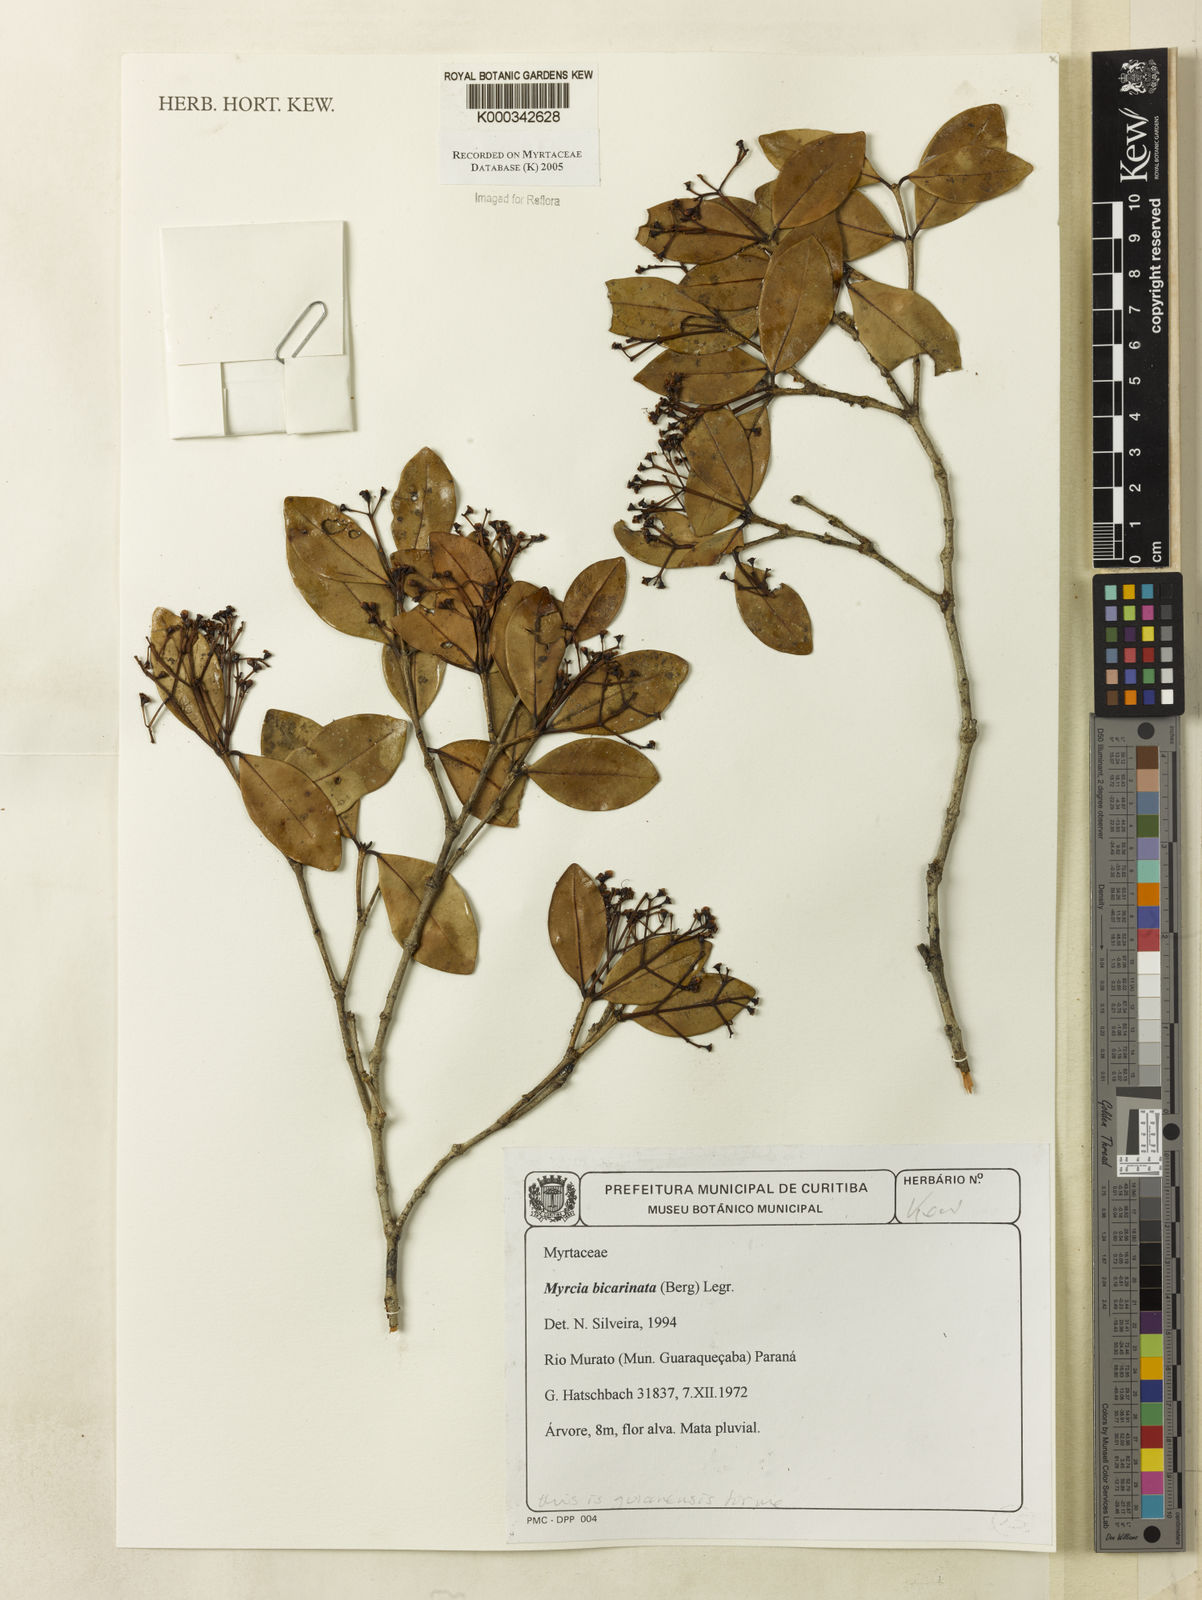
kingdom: Plantae
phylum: Tracheophyta
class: Magnoliopsida
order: Myrtales
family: Myrtaceae
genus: Myrcia
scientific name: Myrcia bicarinata
